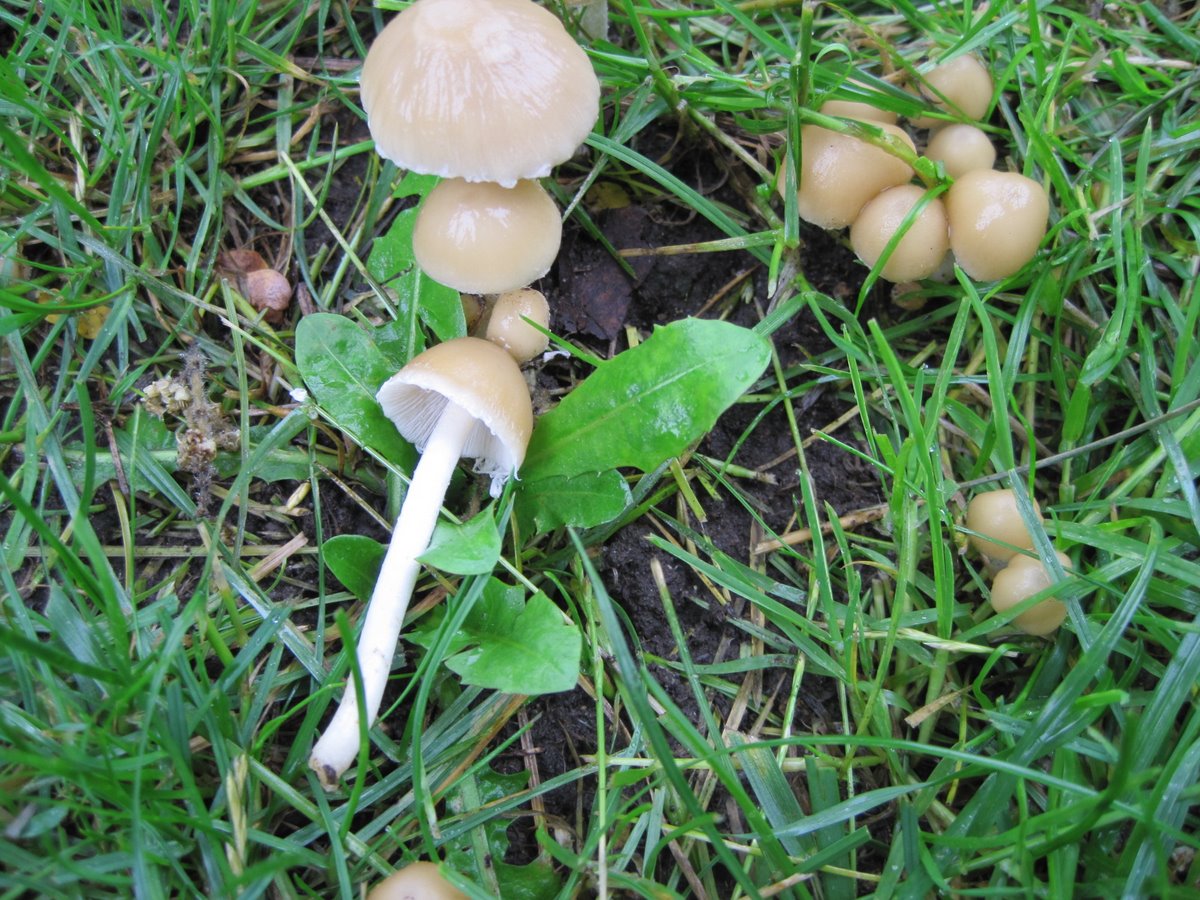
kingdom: Fungi
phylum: Basidiomycota
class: Agaricomycetes
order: Agaricales
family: Psathyrellaceae
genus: Candolleomyces
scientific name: Candolleomyces candolleanus
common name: Candolles mørkhat
